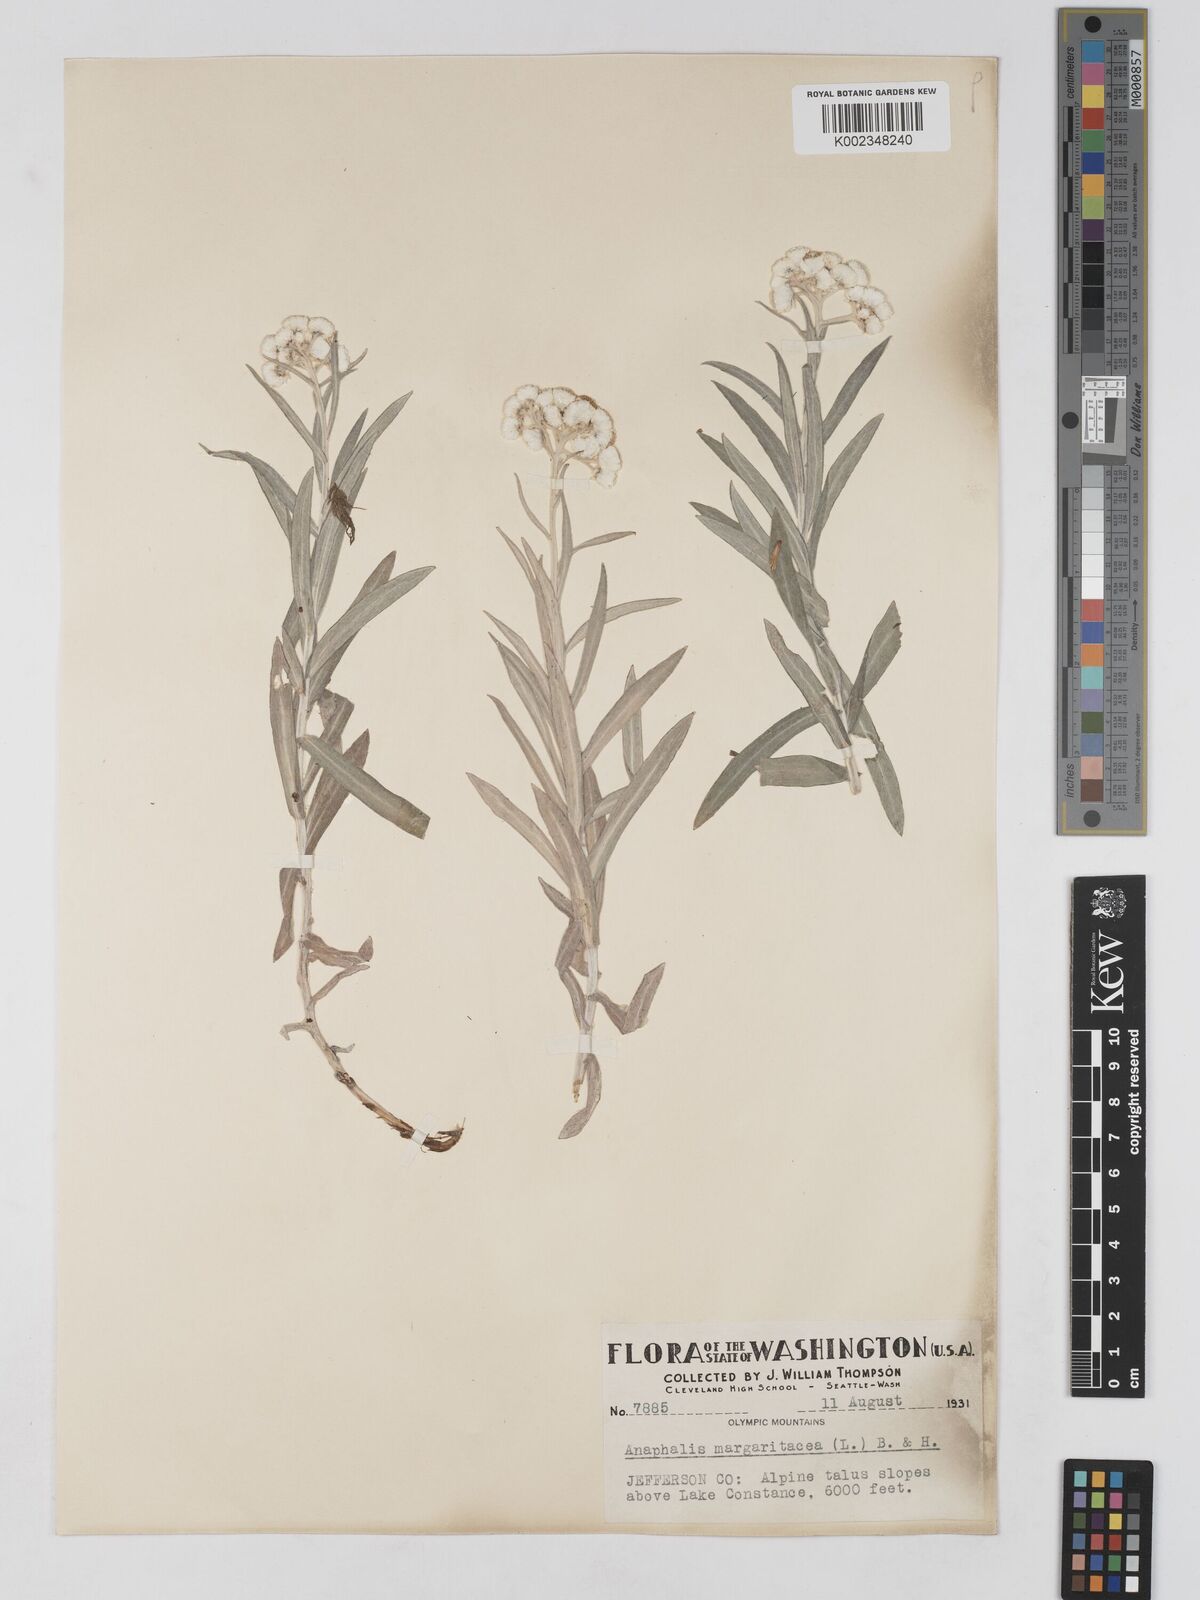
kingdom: Plantae
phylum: Tracheophyta
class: Magnoliopsida
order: Asterales
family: Asteraceae
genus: Anaphalis
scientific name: Anaphalis margaritacea
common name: Pearly everlasting
